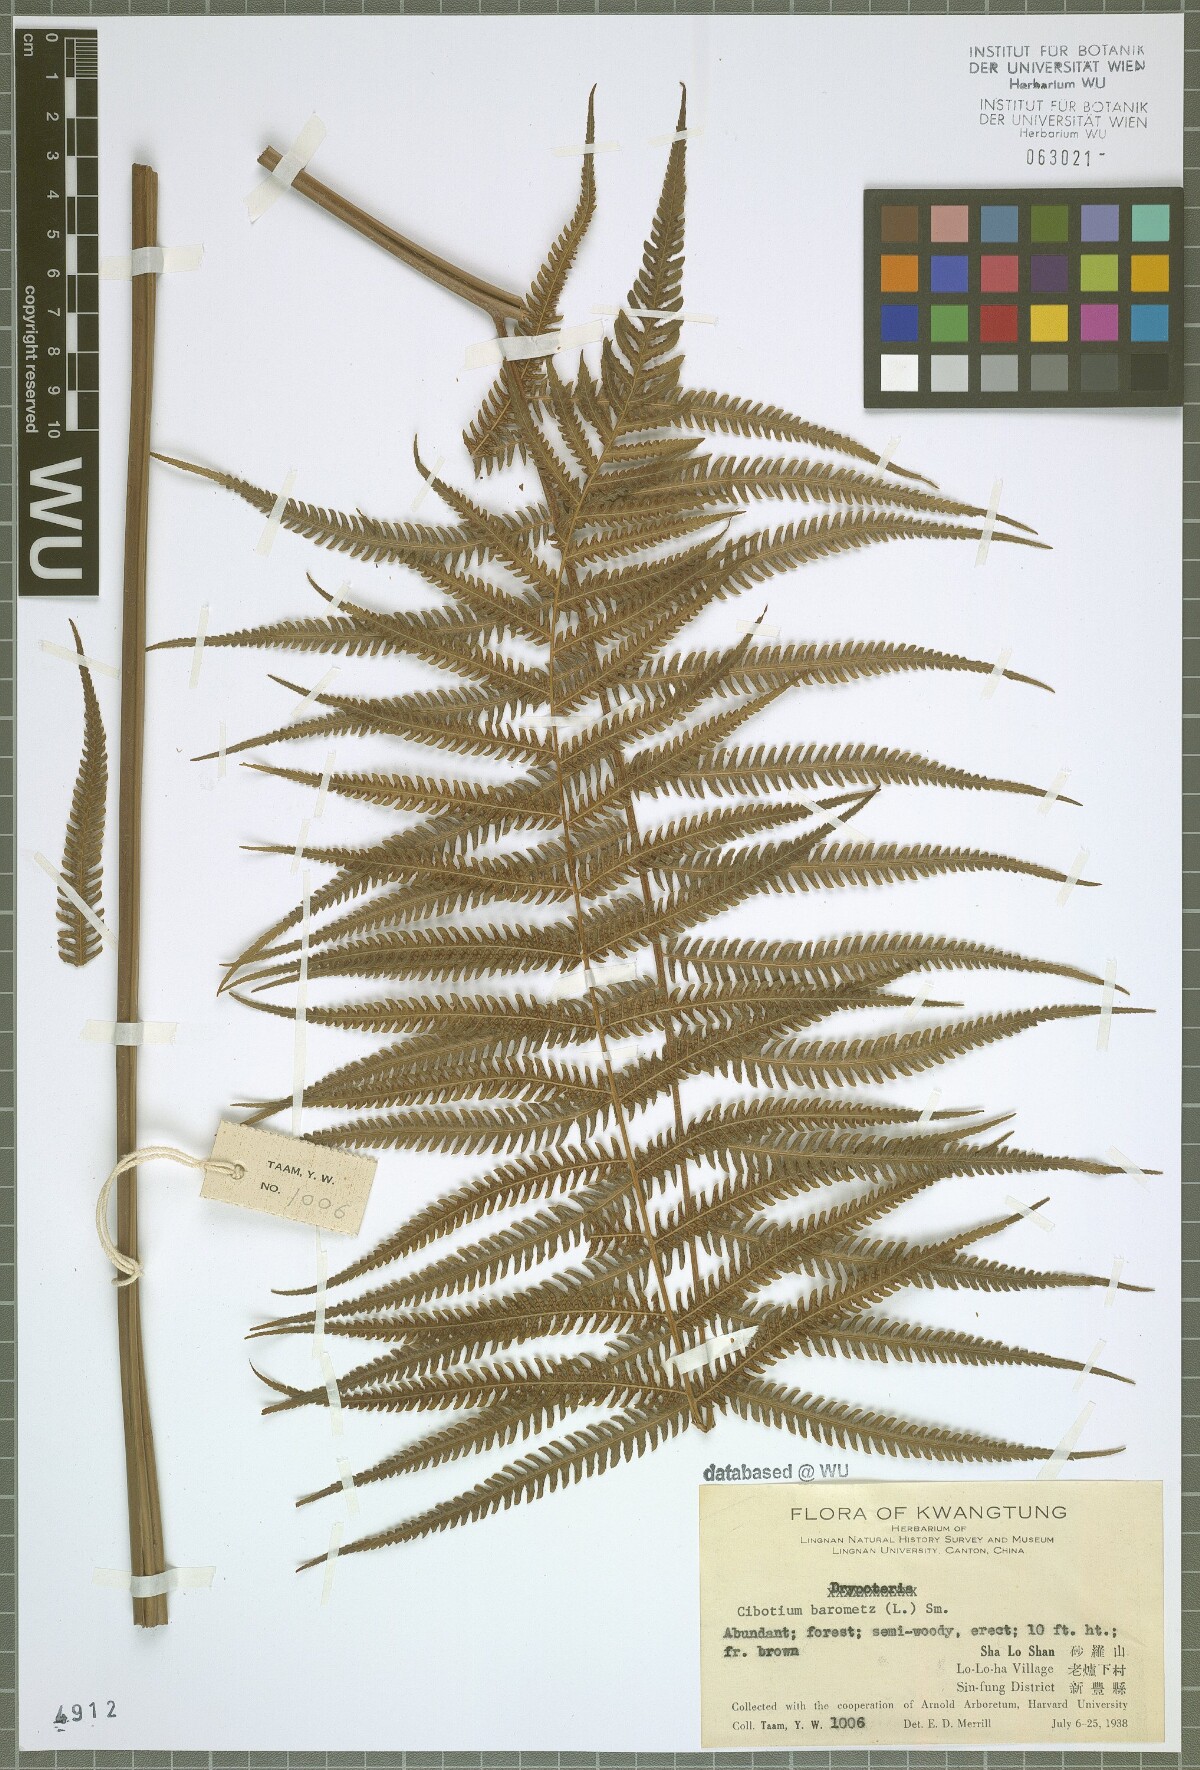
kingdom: Plantae
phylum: Tracheophyta
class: Polypodiopsida
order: Cyatheales
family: Cibotiaceae
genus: Cibotium
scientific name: Cibotium barometz
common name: Scythian-lamb
